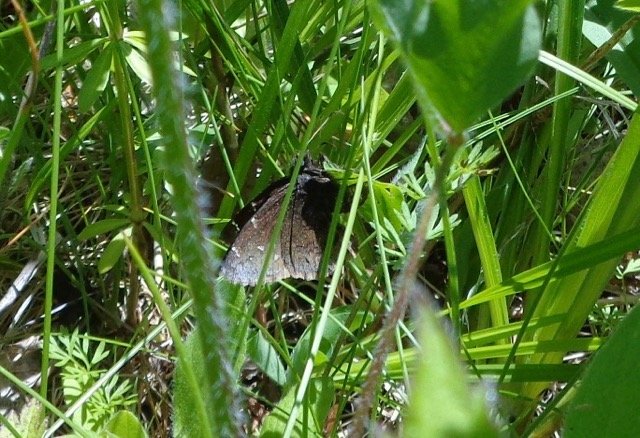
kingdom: Animalia
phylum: Arthropoda
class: Insecta
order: Lepidoptera
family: Hesperiidae
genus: Autochton
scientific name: Autochton
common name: Northern Cloudywing
